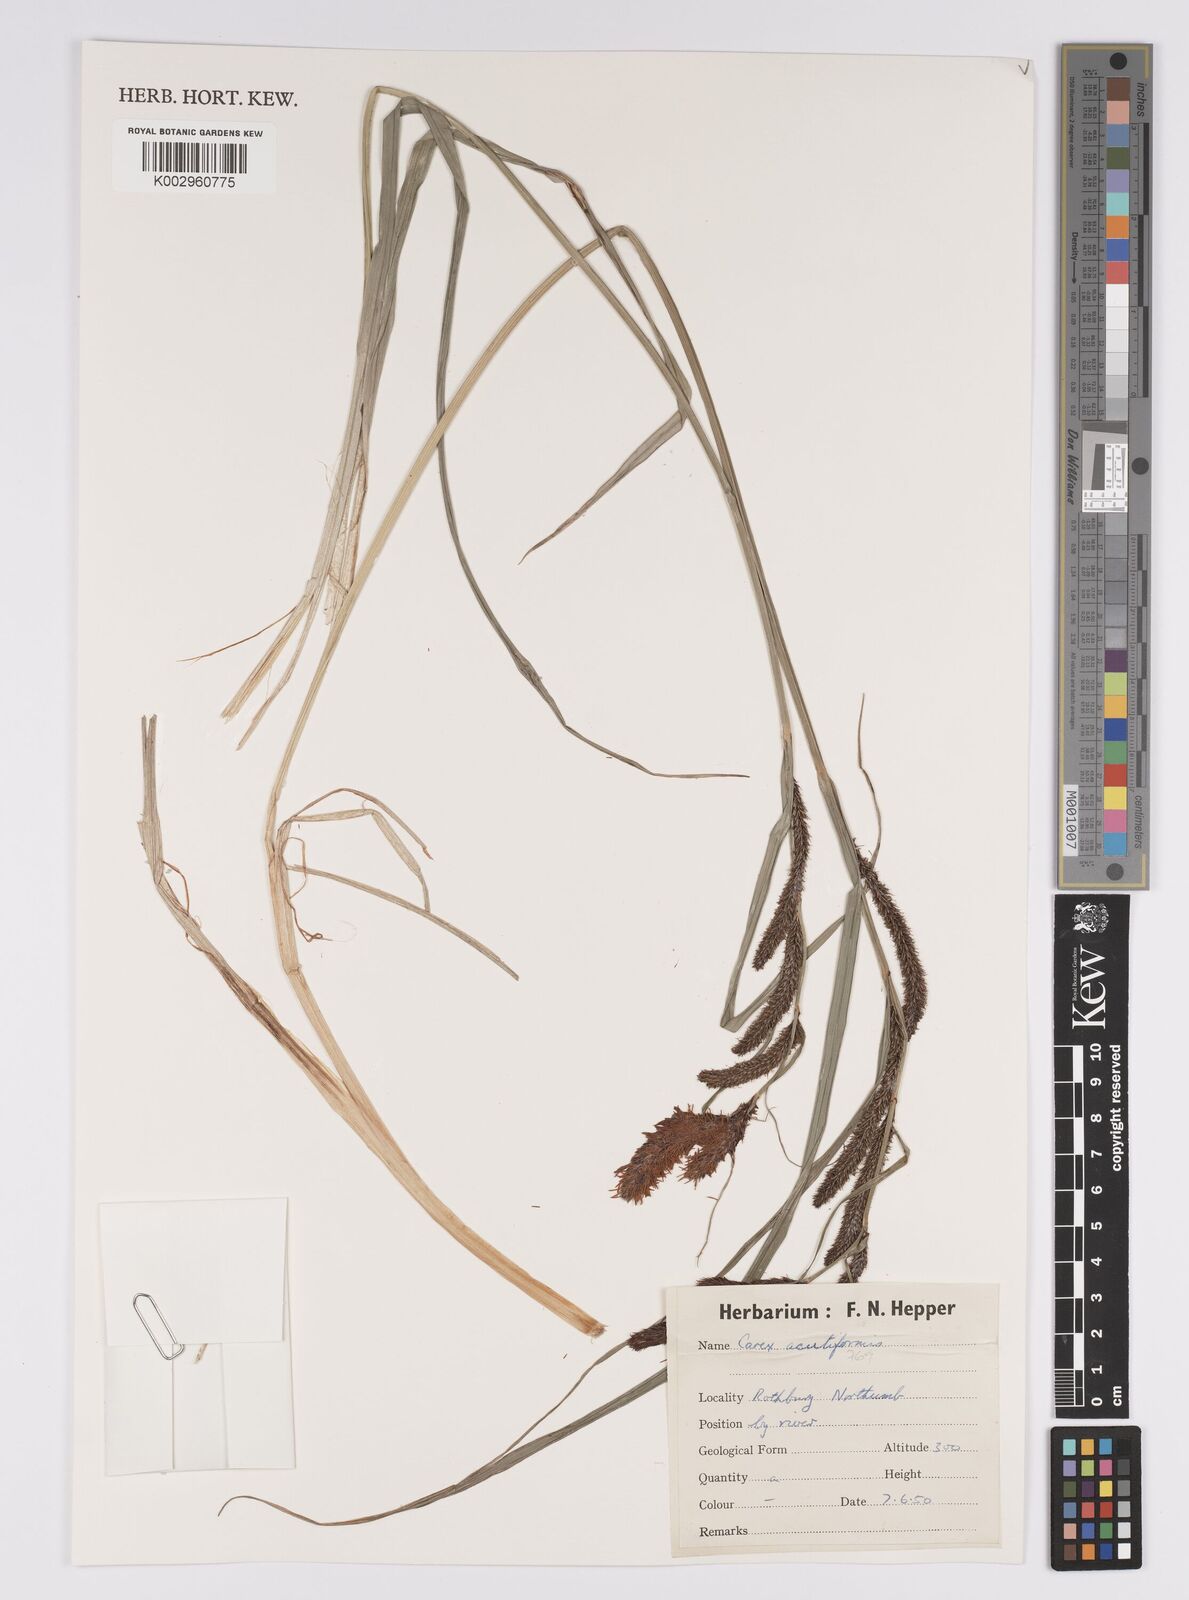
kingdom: Plantae
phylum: Tracheophyta
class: Liliopsida
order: Poales
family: Cyperaceae
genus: Carex
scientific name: Carex acutiformis
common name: Lesser pond-sedge
